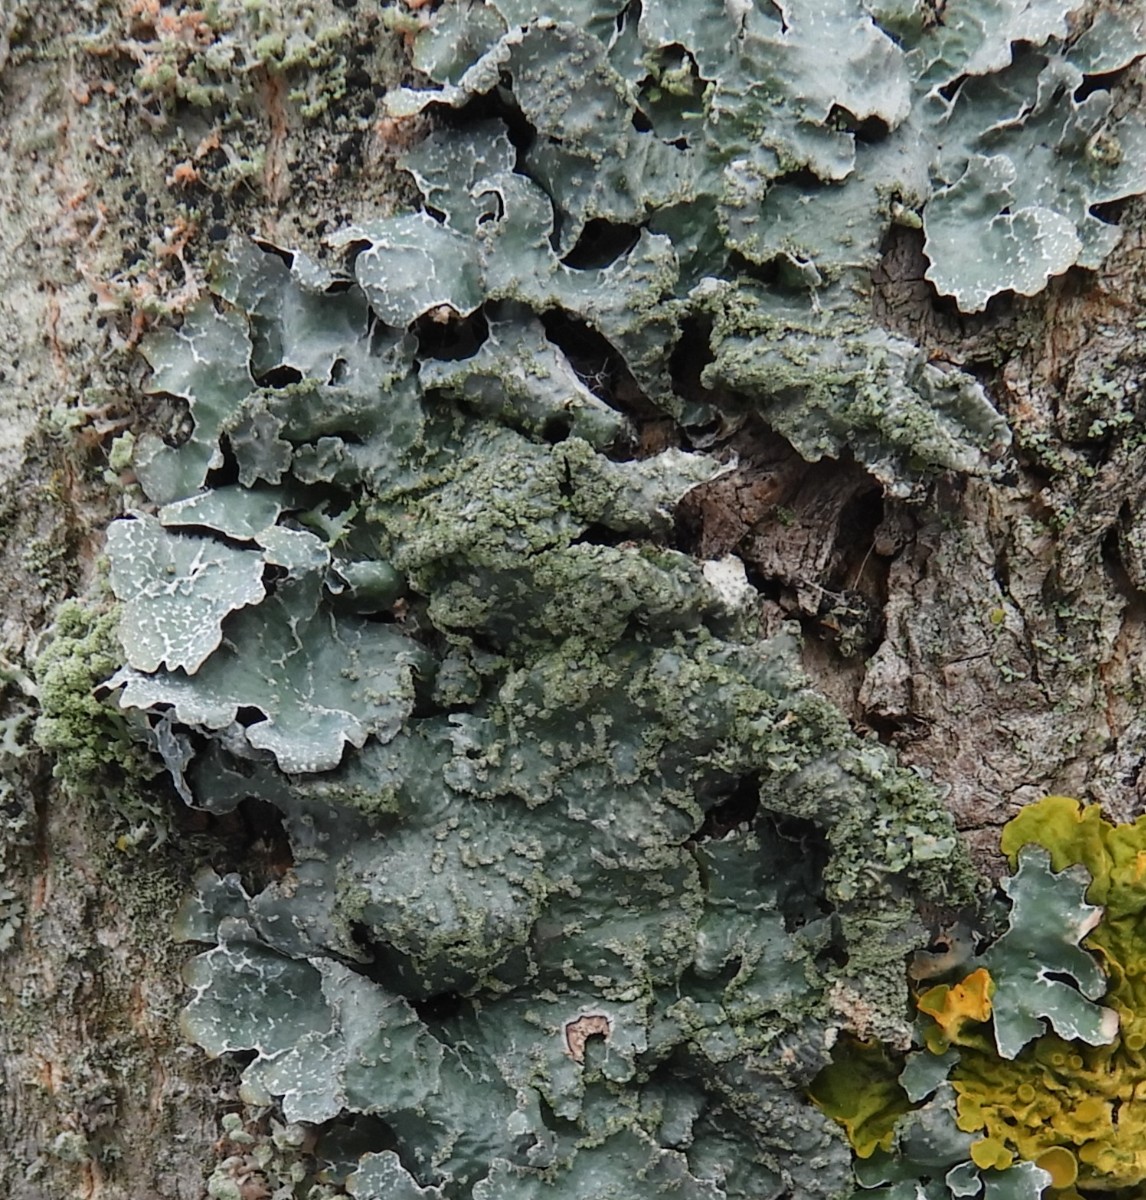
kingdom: Fungi
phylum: Ascomycota
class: Lecanoromycetes
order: Lecanorales
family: Parmeliaceae
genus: Parmelia
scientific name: Parmelia sulcata
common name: rynket skållav
